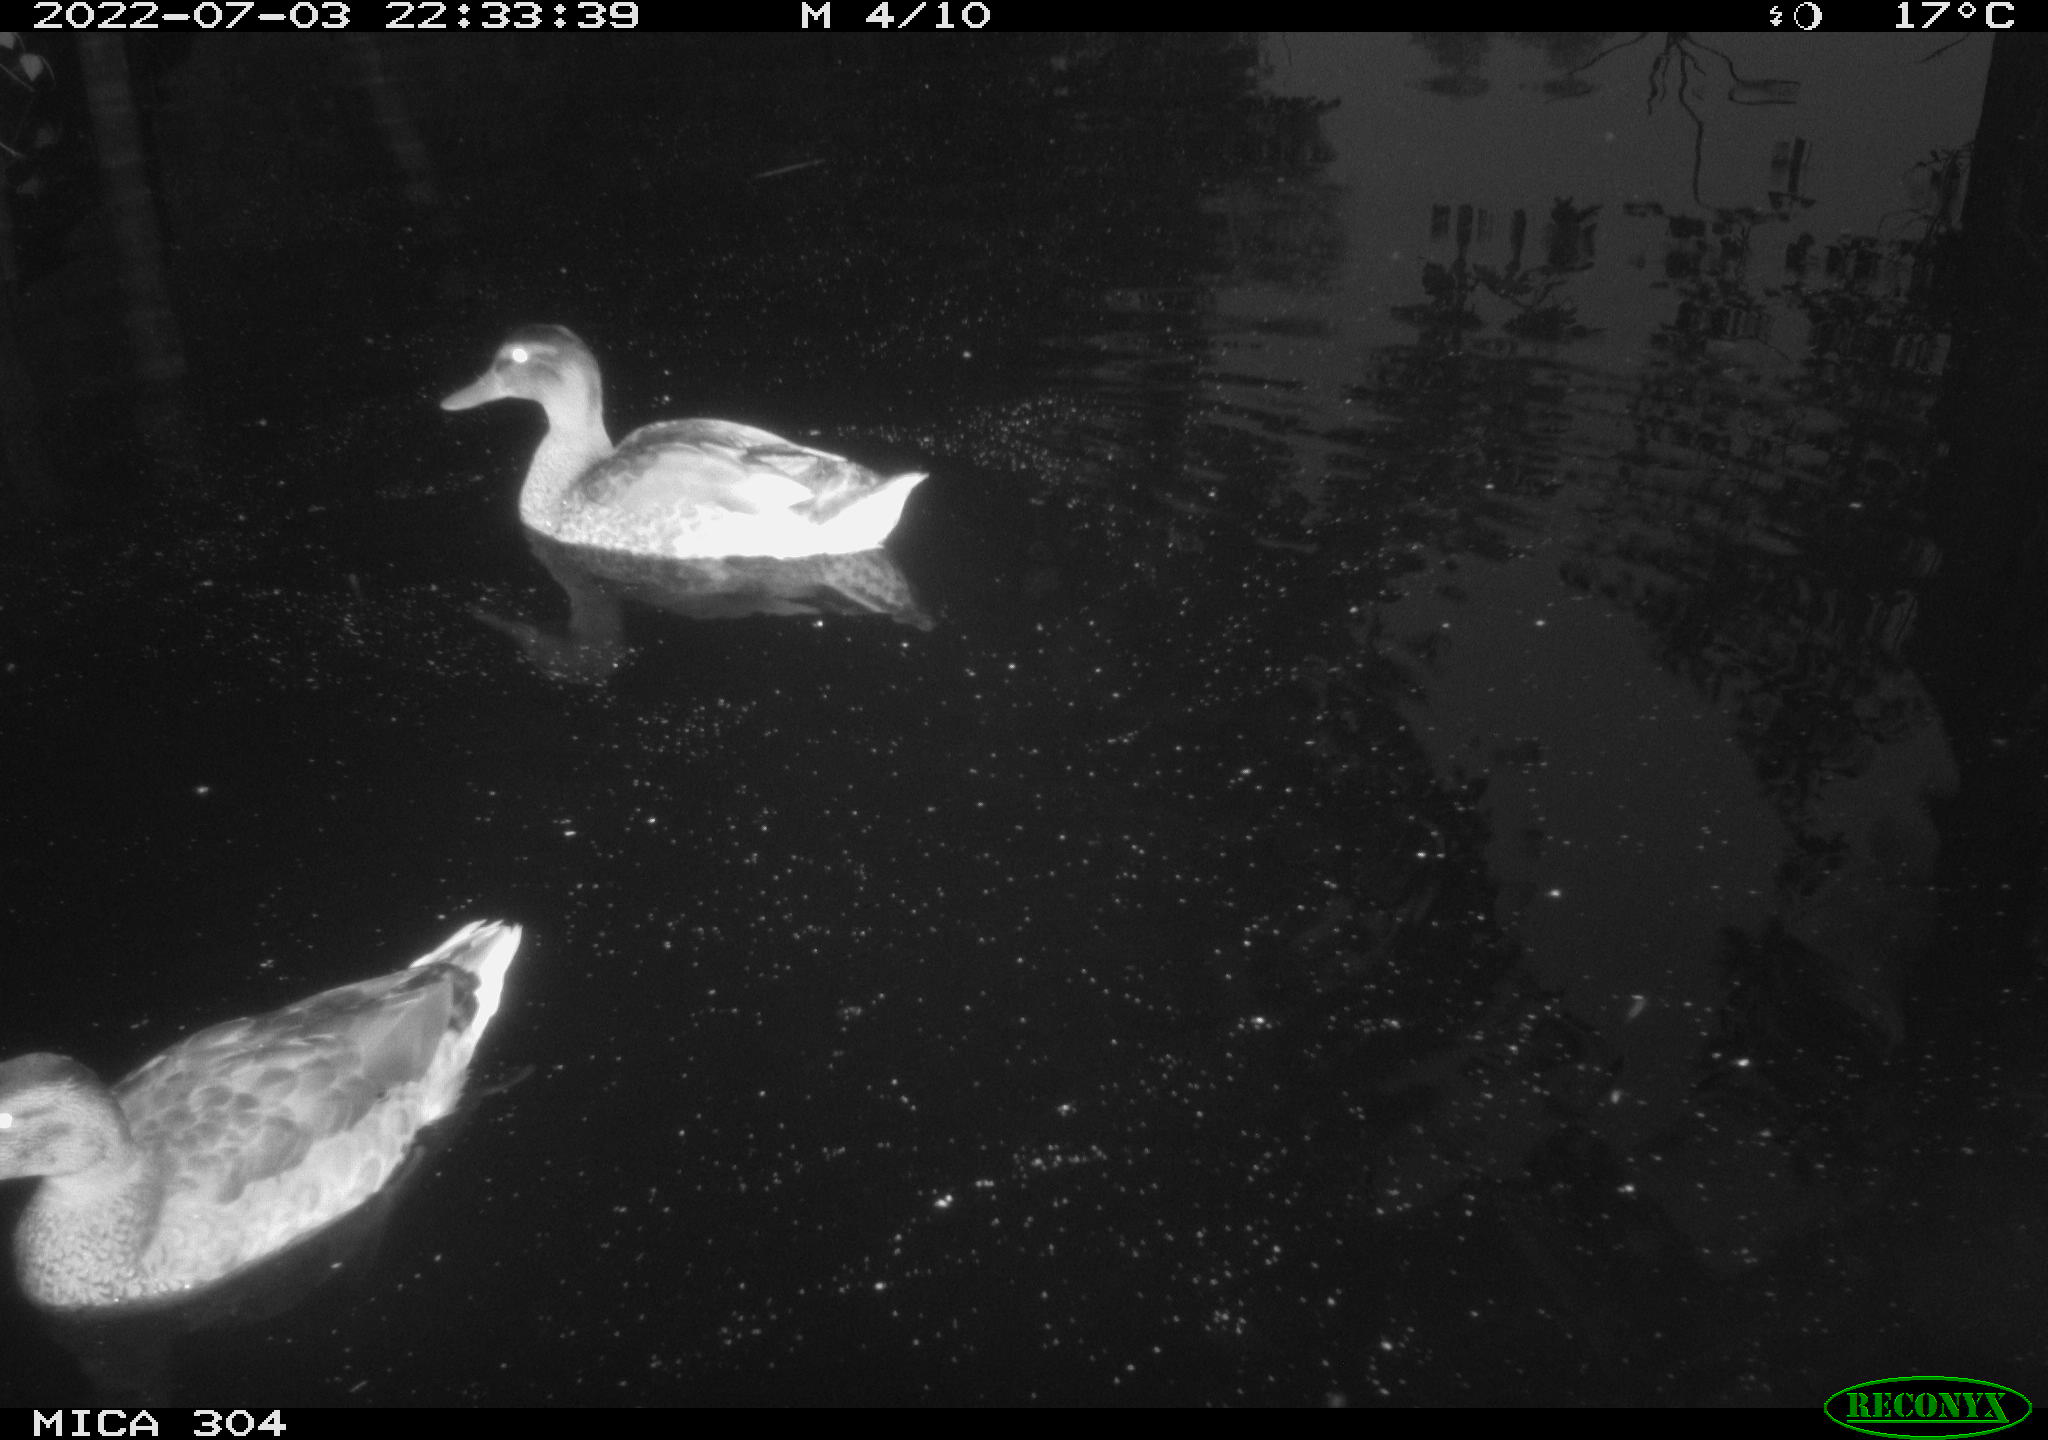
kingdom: Animalia
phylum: Chordata
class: Aves
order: Anseriformes
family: Anatidae
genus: Mareca
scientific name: Mareca strepera
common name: Gadwall
